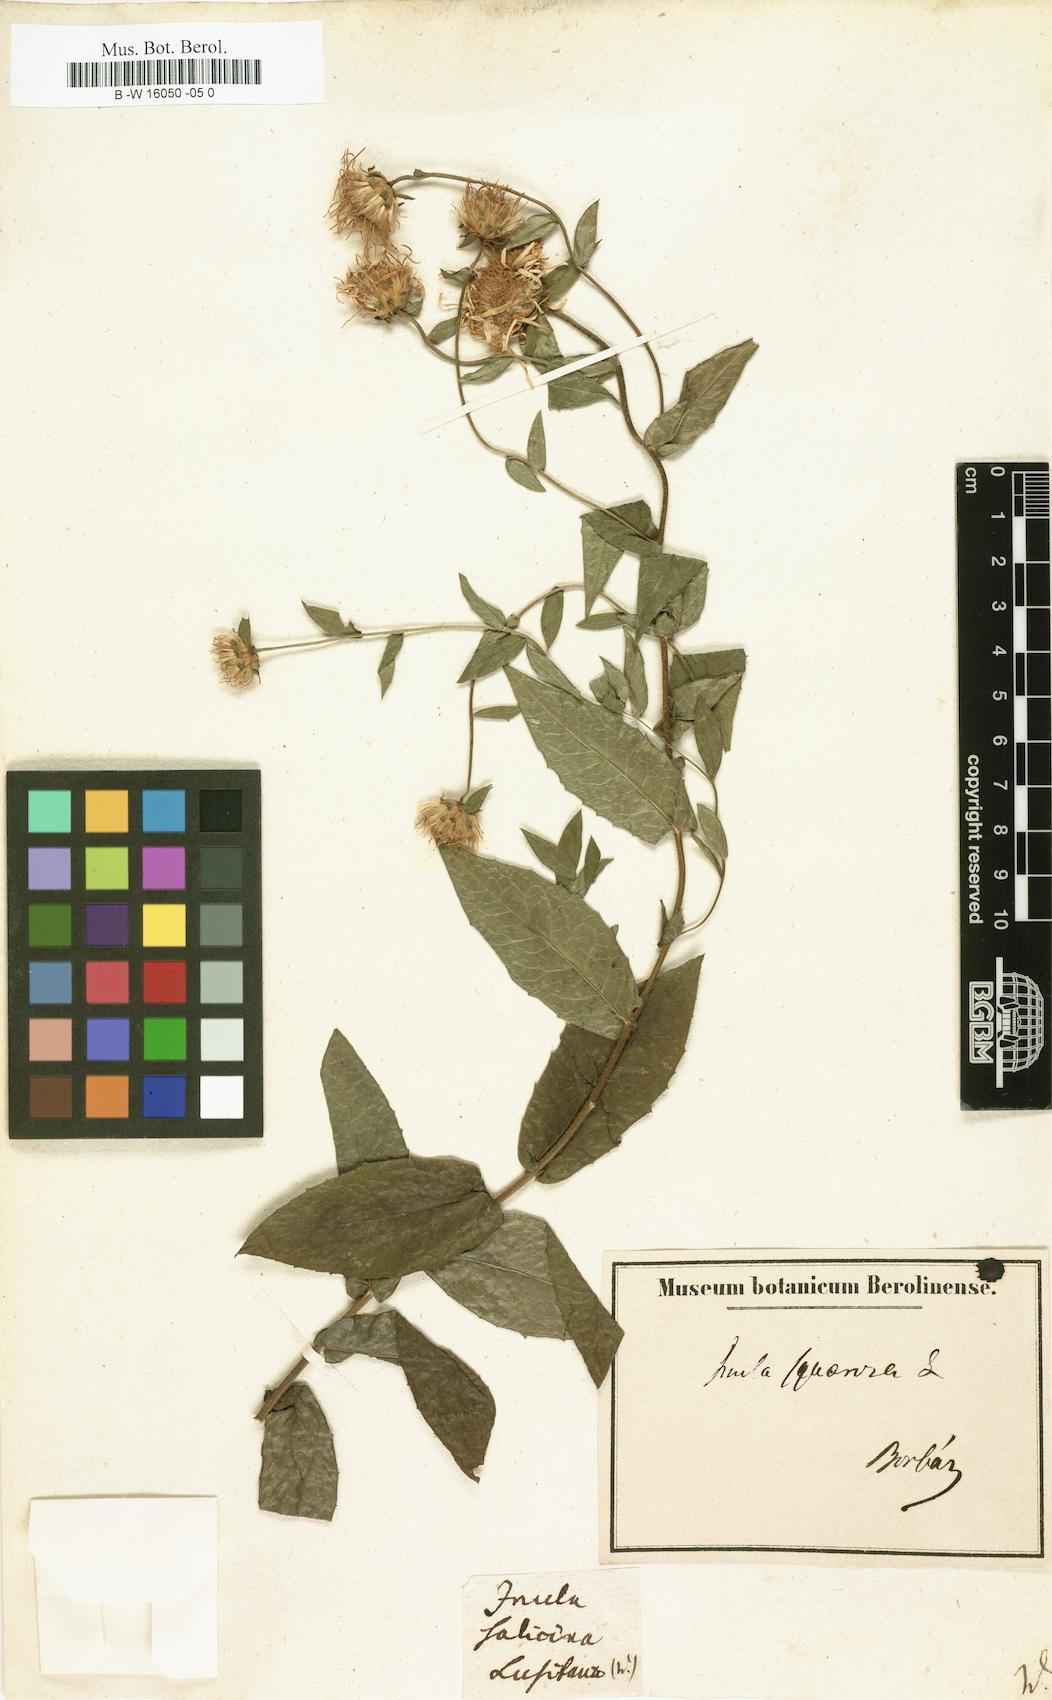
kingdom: Plantae
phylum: Tracheophyta
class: Magnoliopsida
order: Asterales
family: Asteraceae
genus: Pentanema
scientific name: Pentanema salicinum
